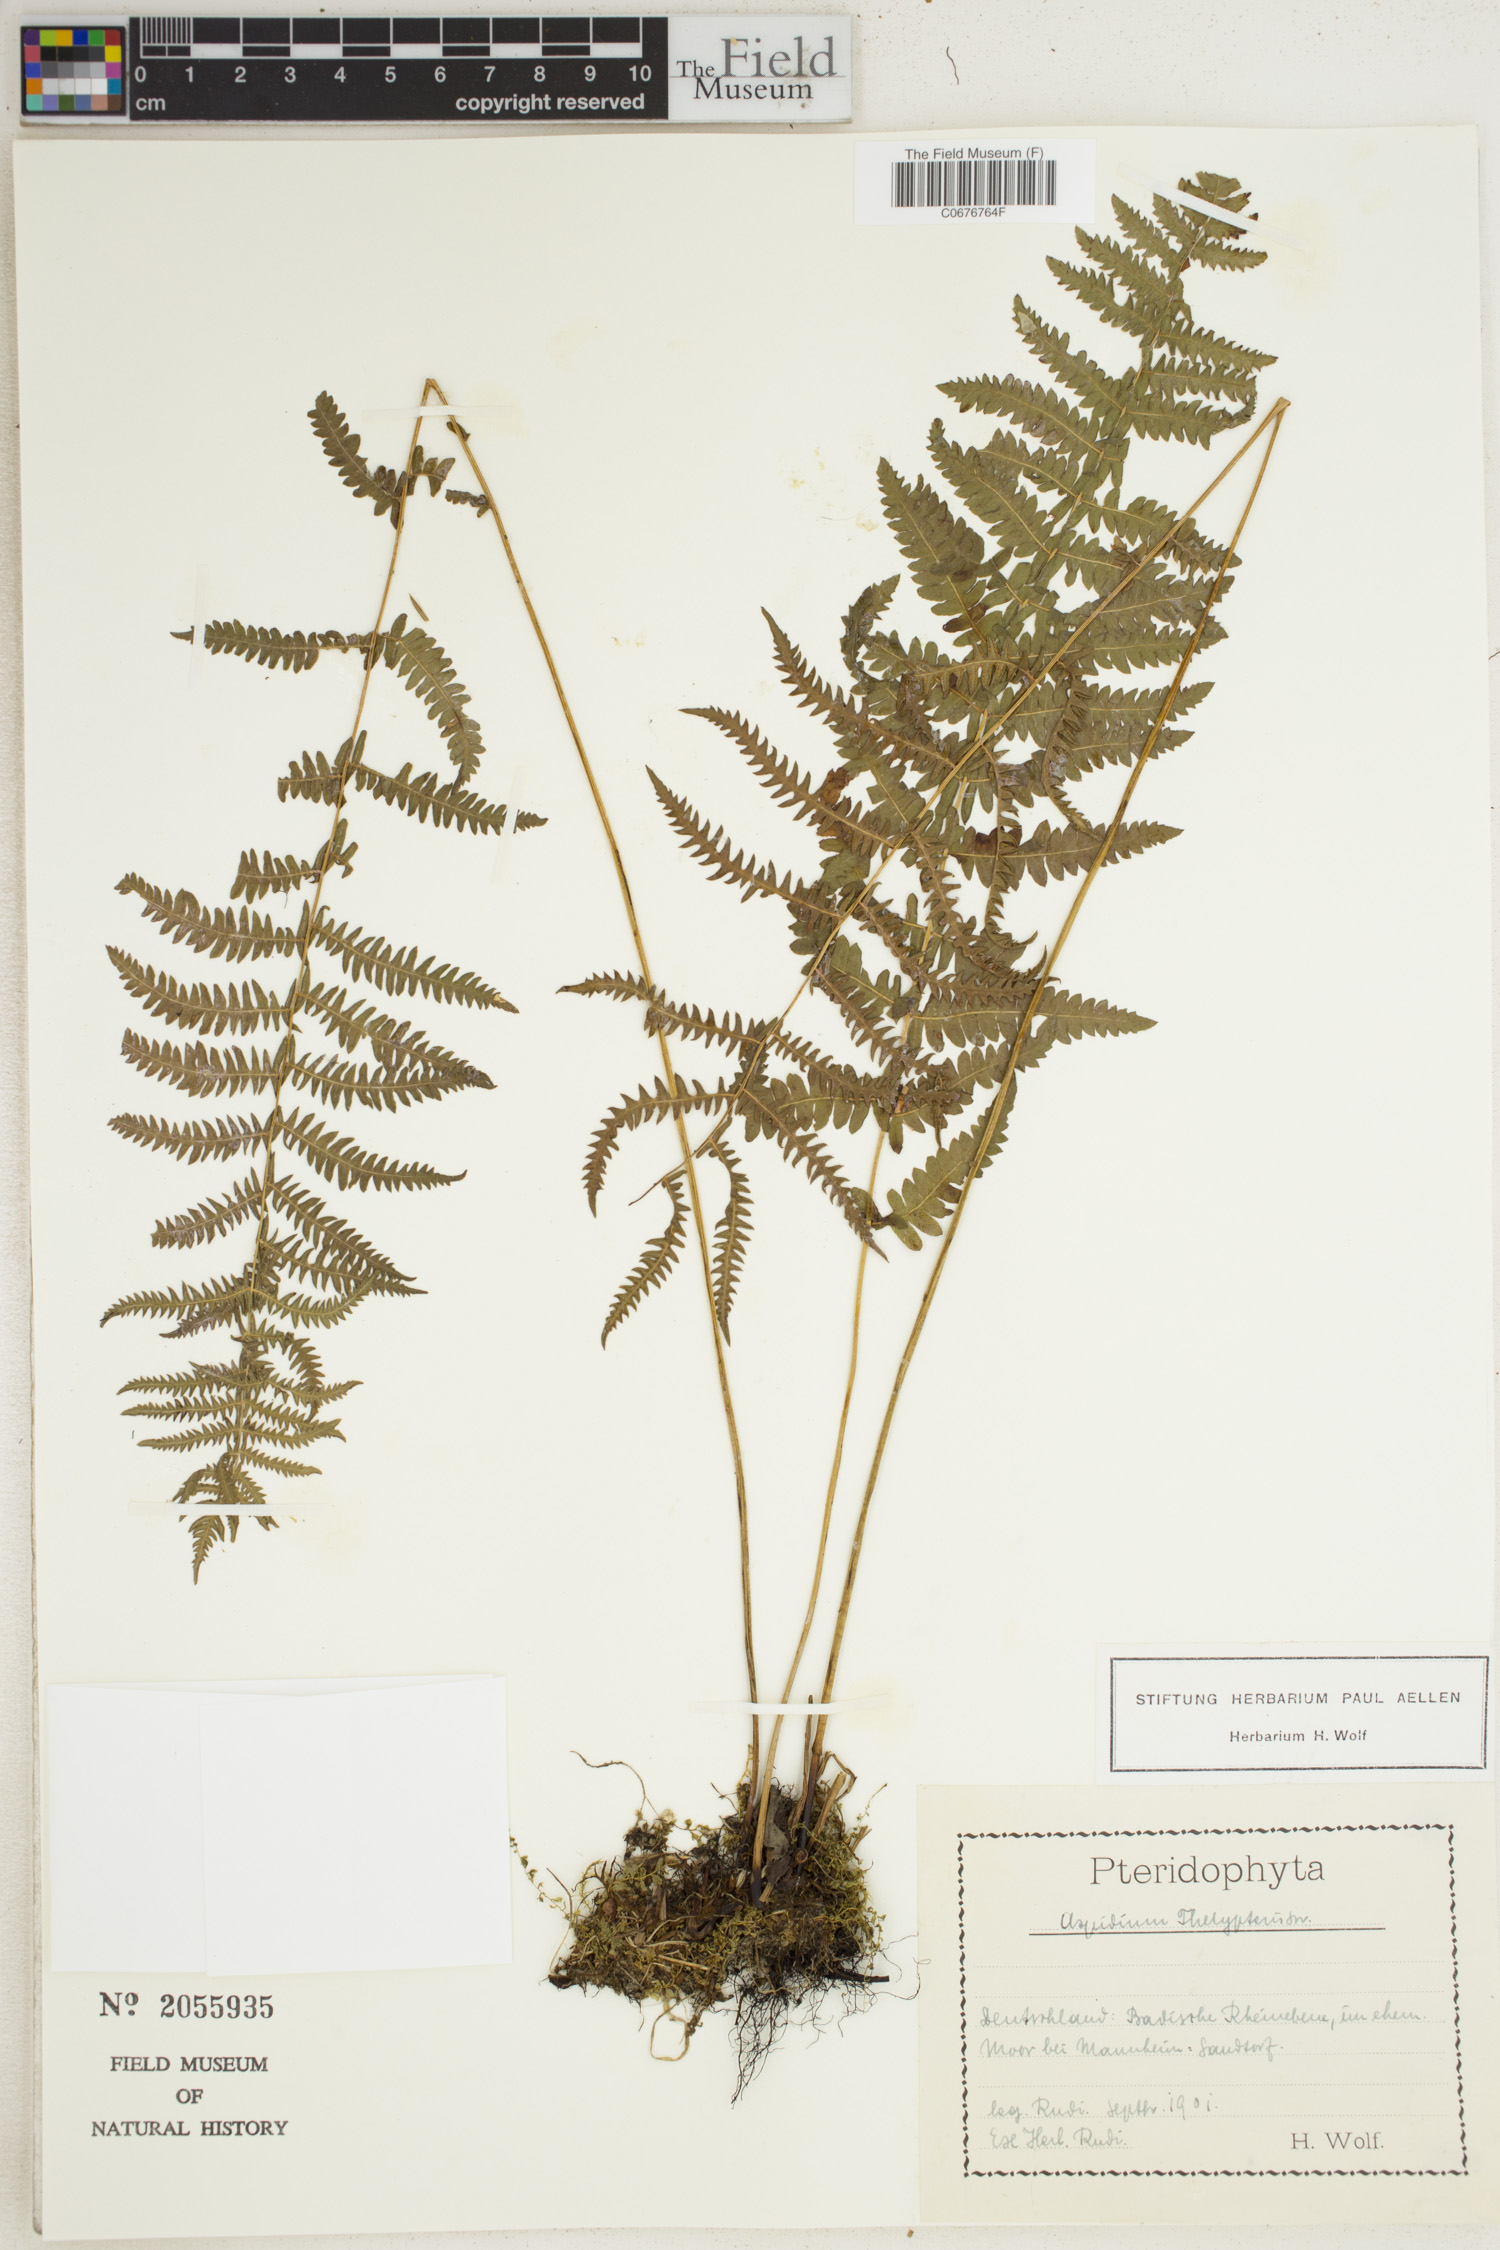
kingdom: Plantae
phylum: Tracheophyta
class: Polypodiopsida
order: Polypodiales
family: Thelypteridaceae
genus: Thelypteris
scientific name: Thelypteris palustris
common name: Marsh fern
